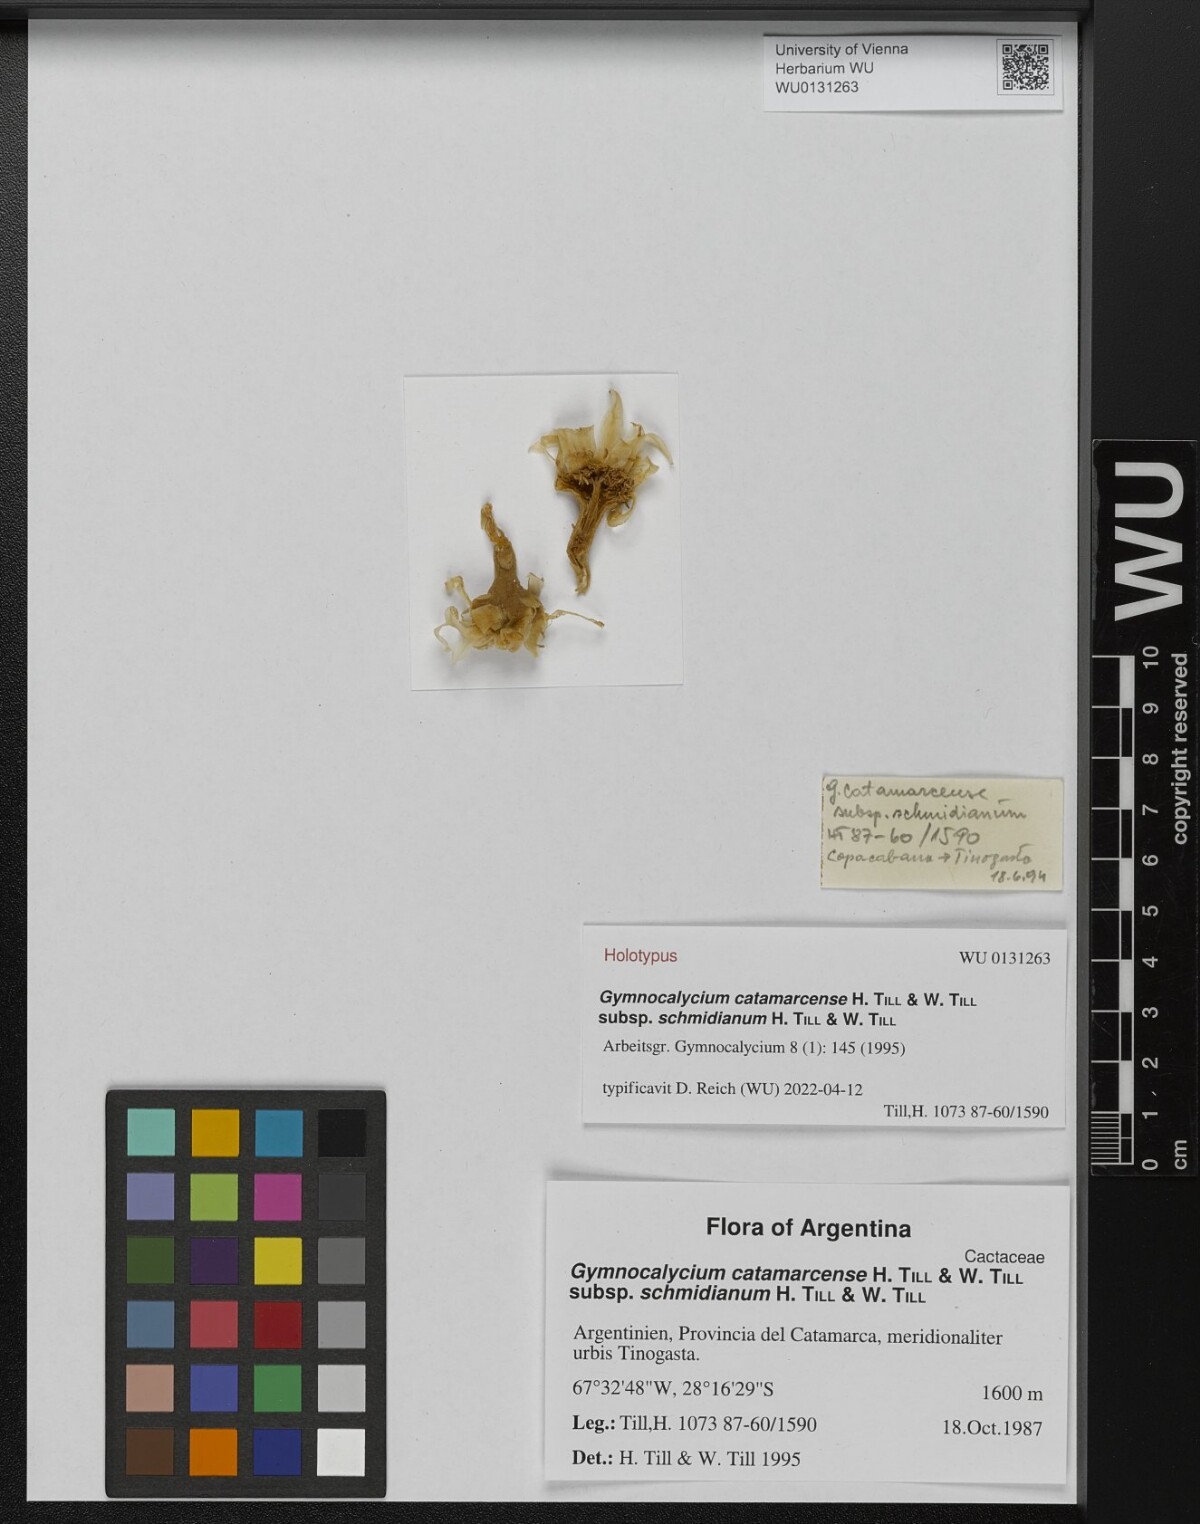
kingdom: Plantae
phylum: Tracheophyta
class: Magnoliopsida
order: Caryophyllales
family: Cactaceae
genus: Gymnocalycium
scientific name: Gymnocalycium monvillei
